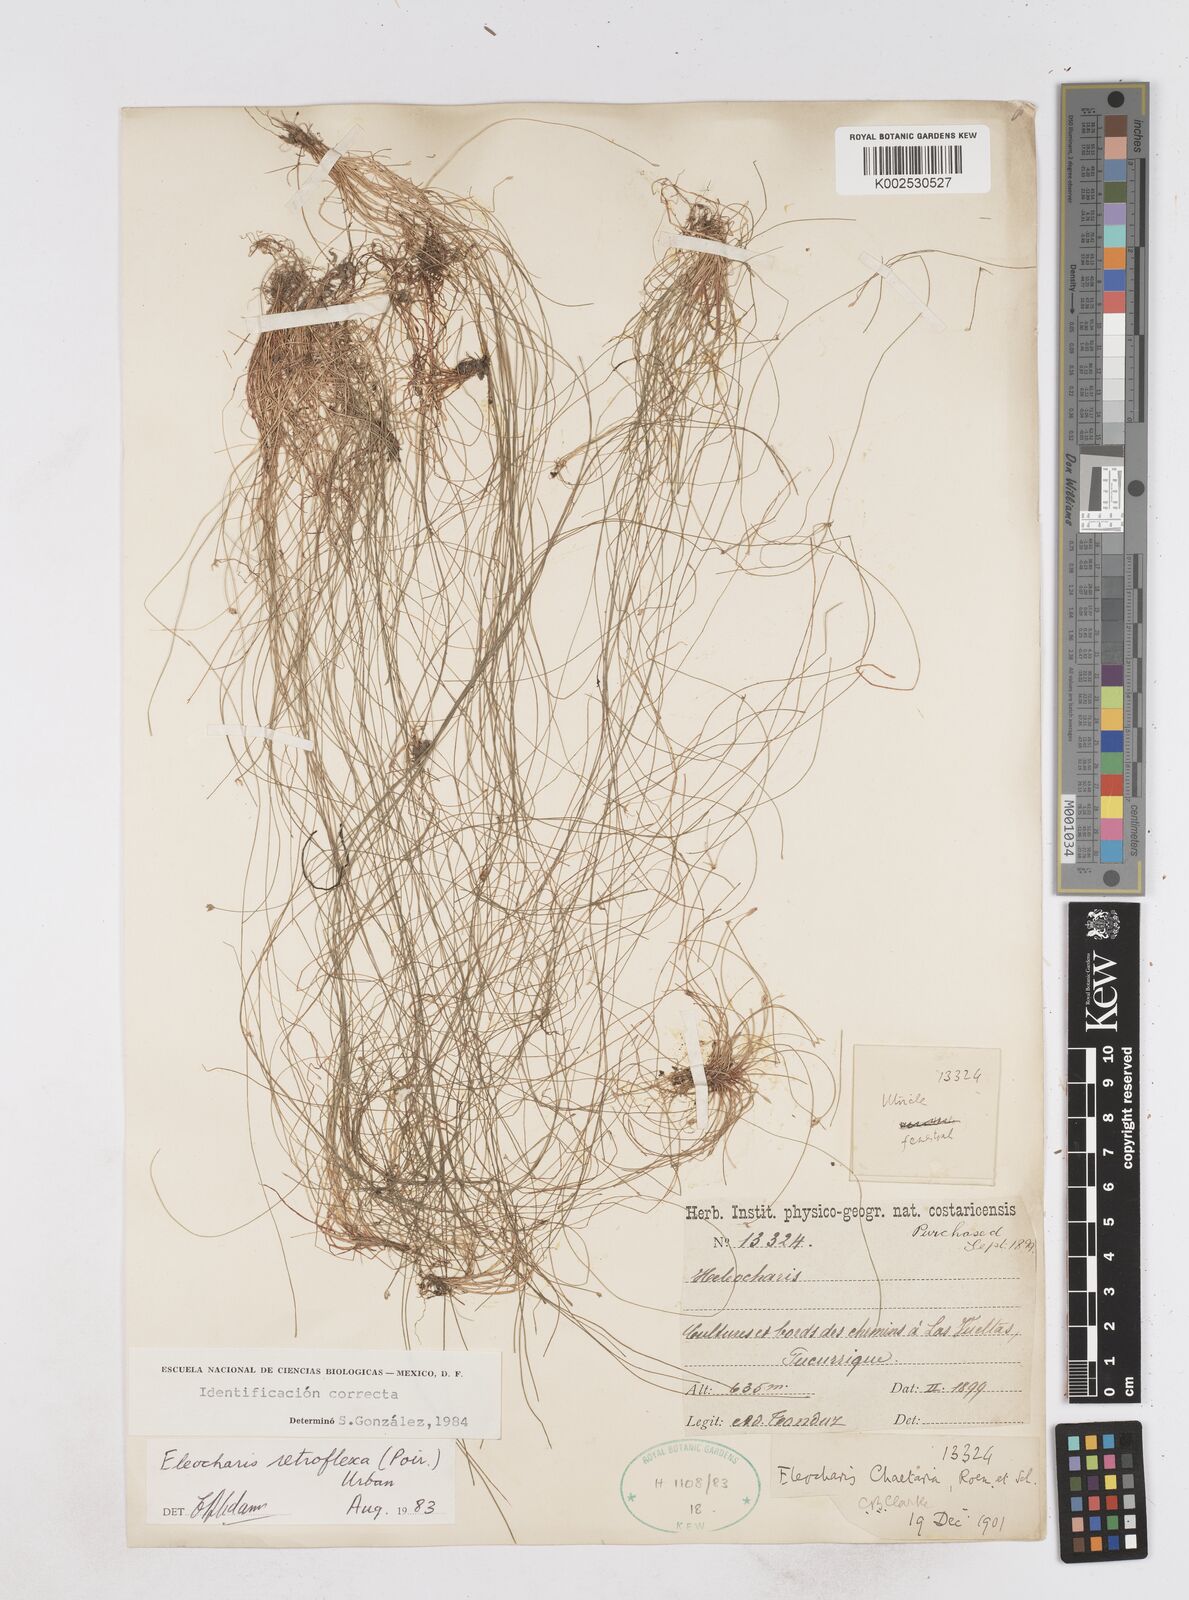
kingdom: Plantae
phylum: Tracheophyta
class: Liliopsida
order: Poales
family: Cyperaceae
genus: Eleocharis
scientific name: Eleocharis retroflexa
